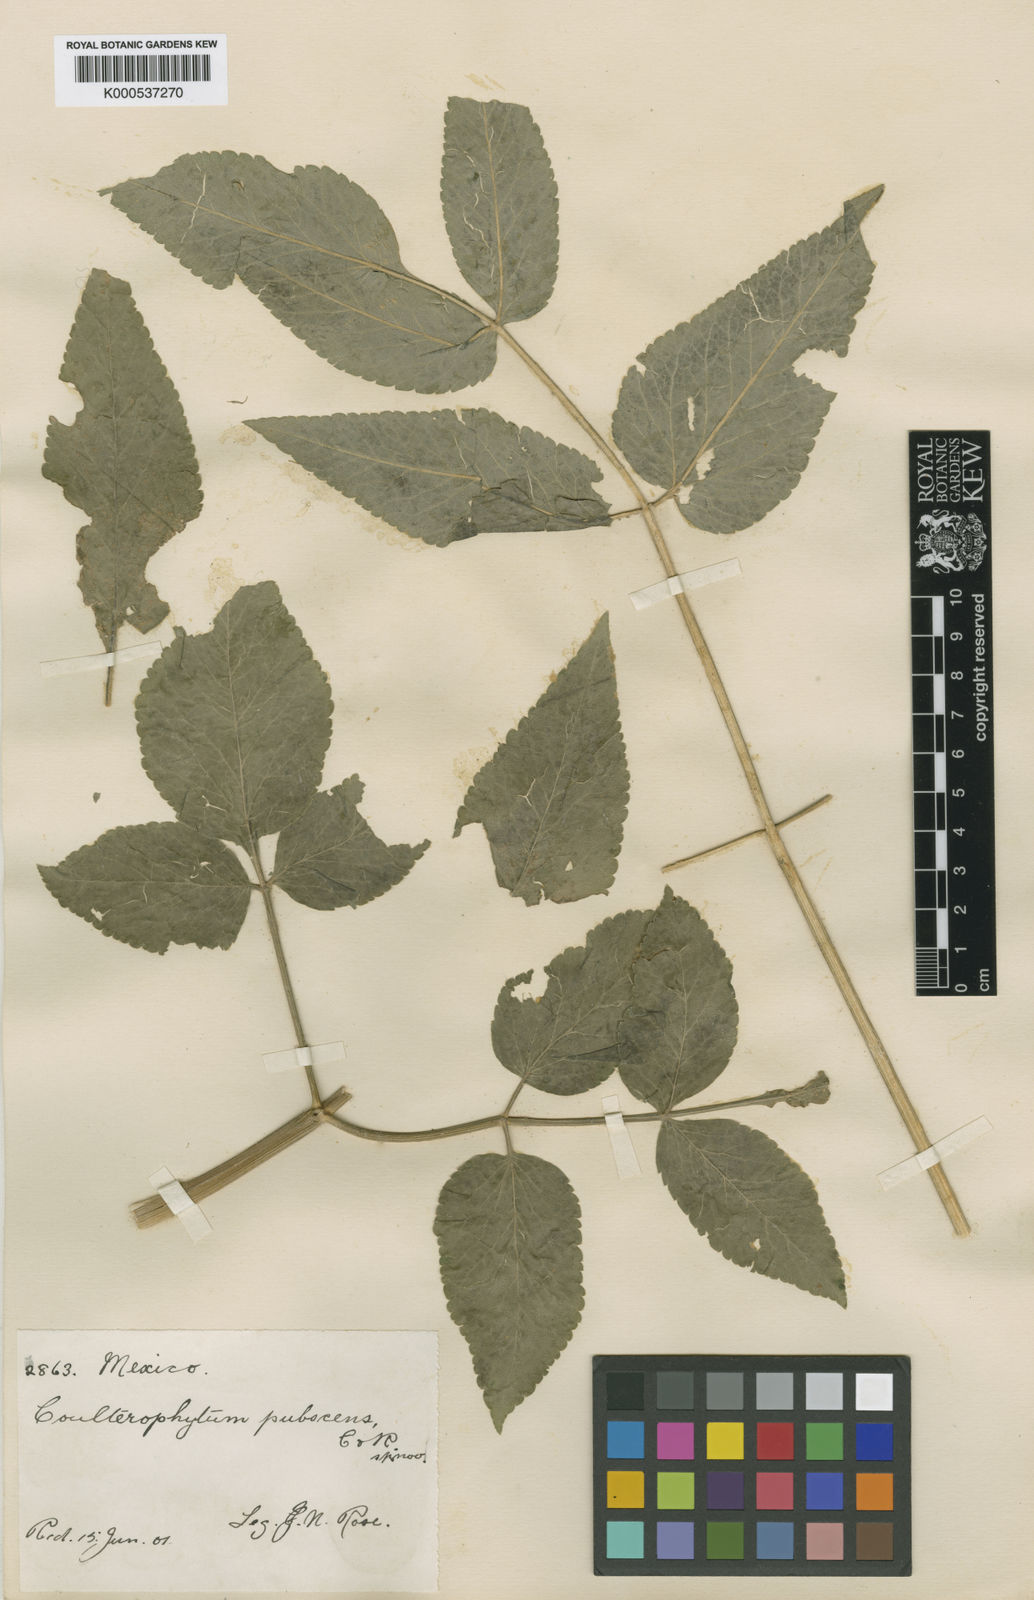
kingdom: Plantae
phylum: Tracheophyta
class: Magnoliopsida
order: Apiales
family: Apiaceae
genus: Coulterophytum
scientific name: Coulterophytum macrophyllum
